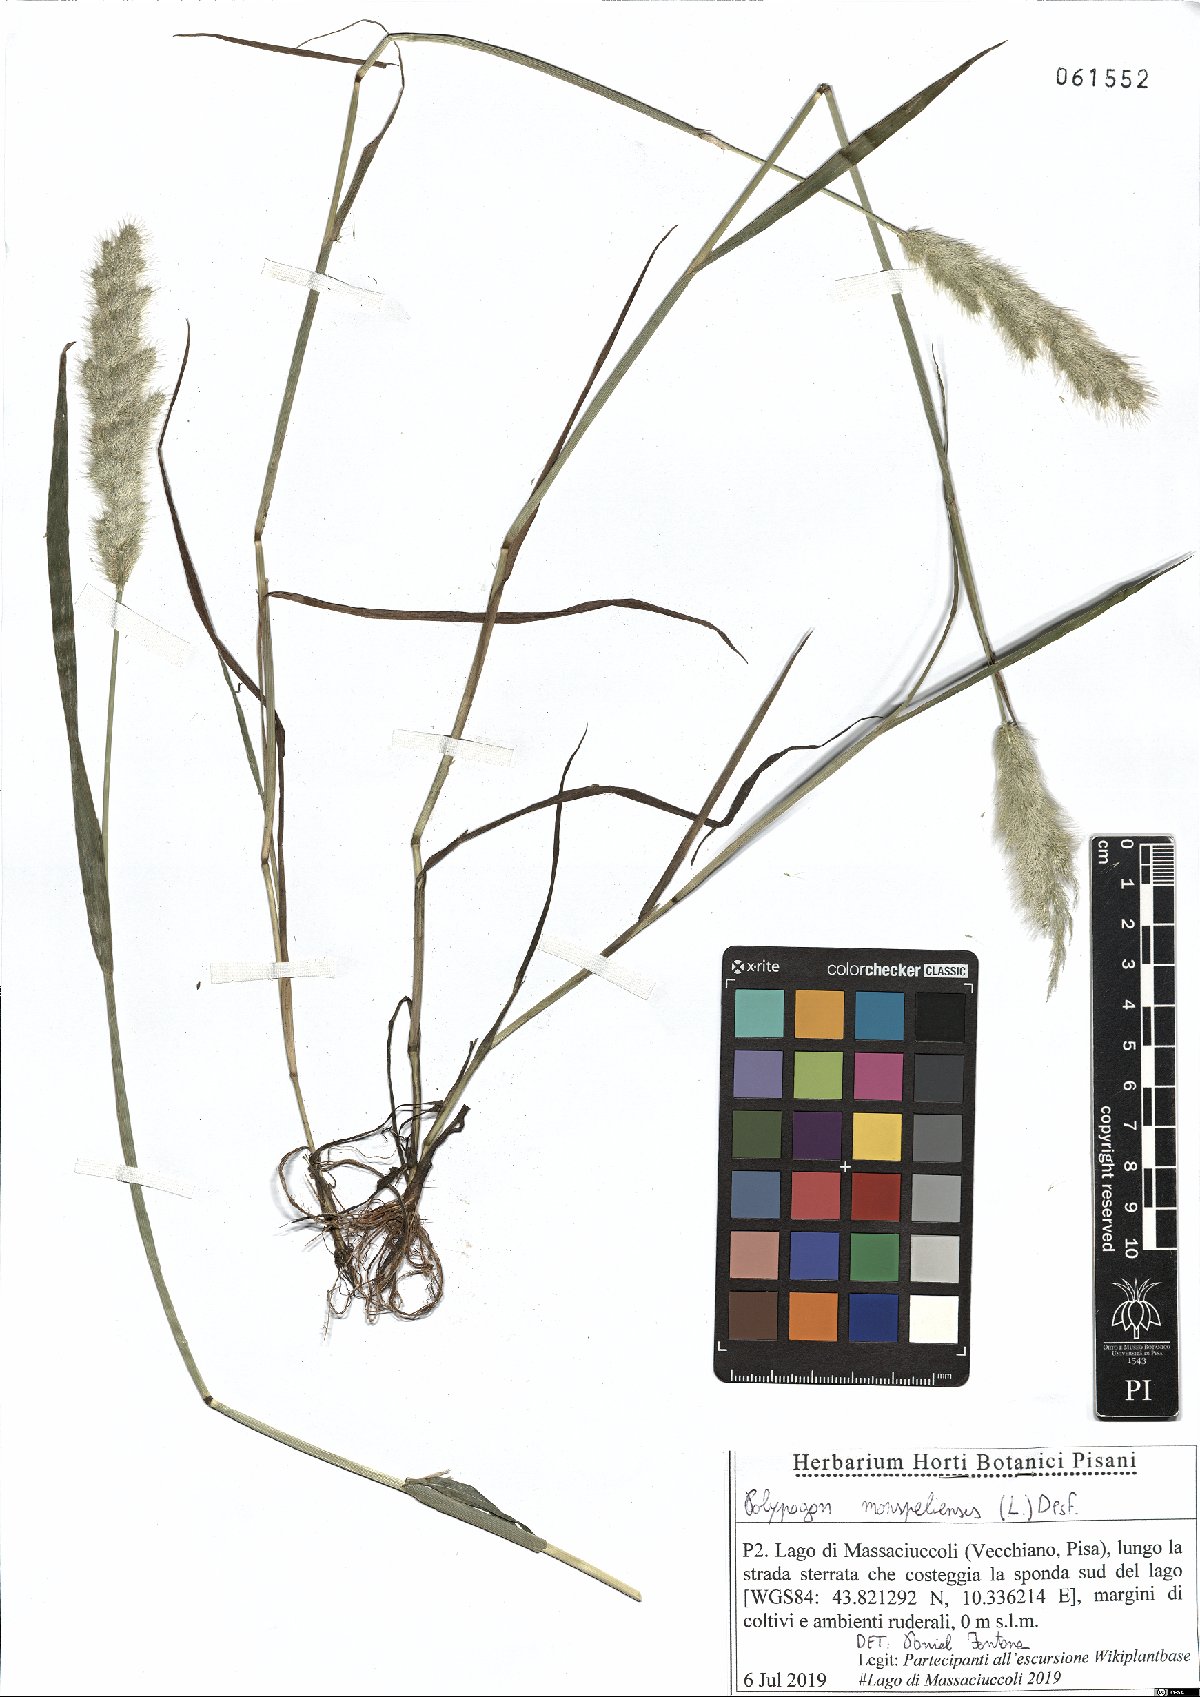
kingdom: Plantae
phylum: Tracheophyta
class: Liliopsida
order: Poales
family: Poaceae
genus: Polypogon
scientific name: Polypogon monspeliensis
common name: Annual rabbitsfoot grass
